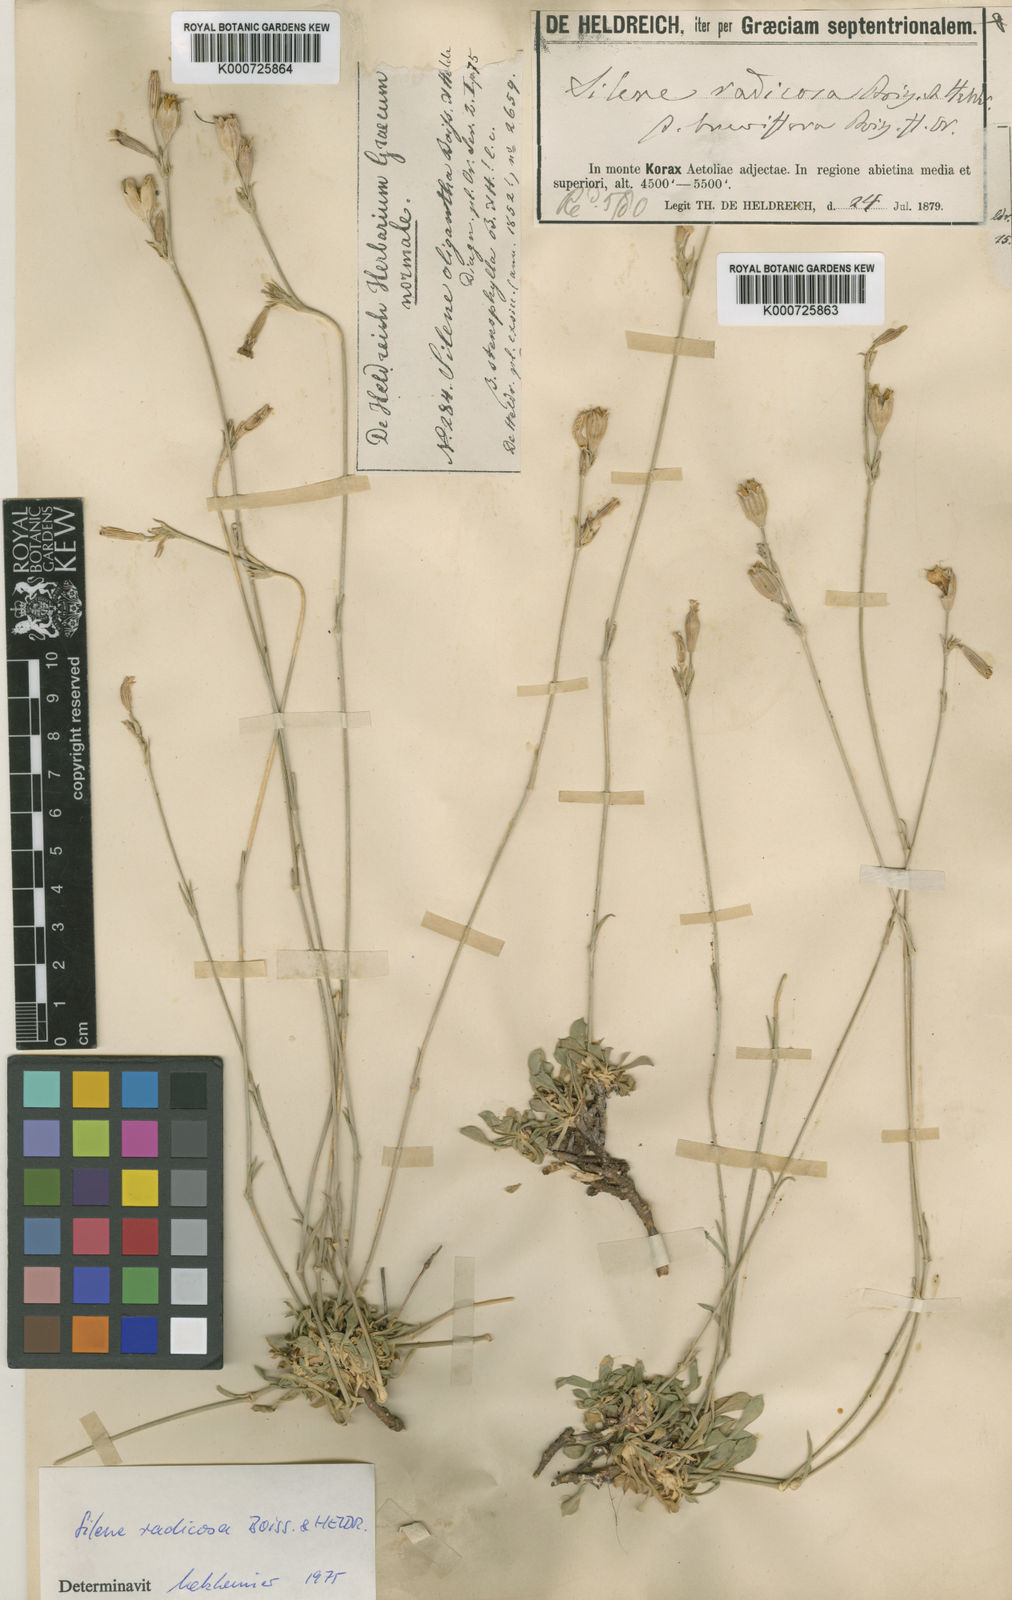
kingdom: Plantae
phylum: Tracheophyta
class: Magnoliopsida
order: Caryophyllales
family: Caryophyllaceae
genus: Silene
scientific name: Silene radicosa
